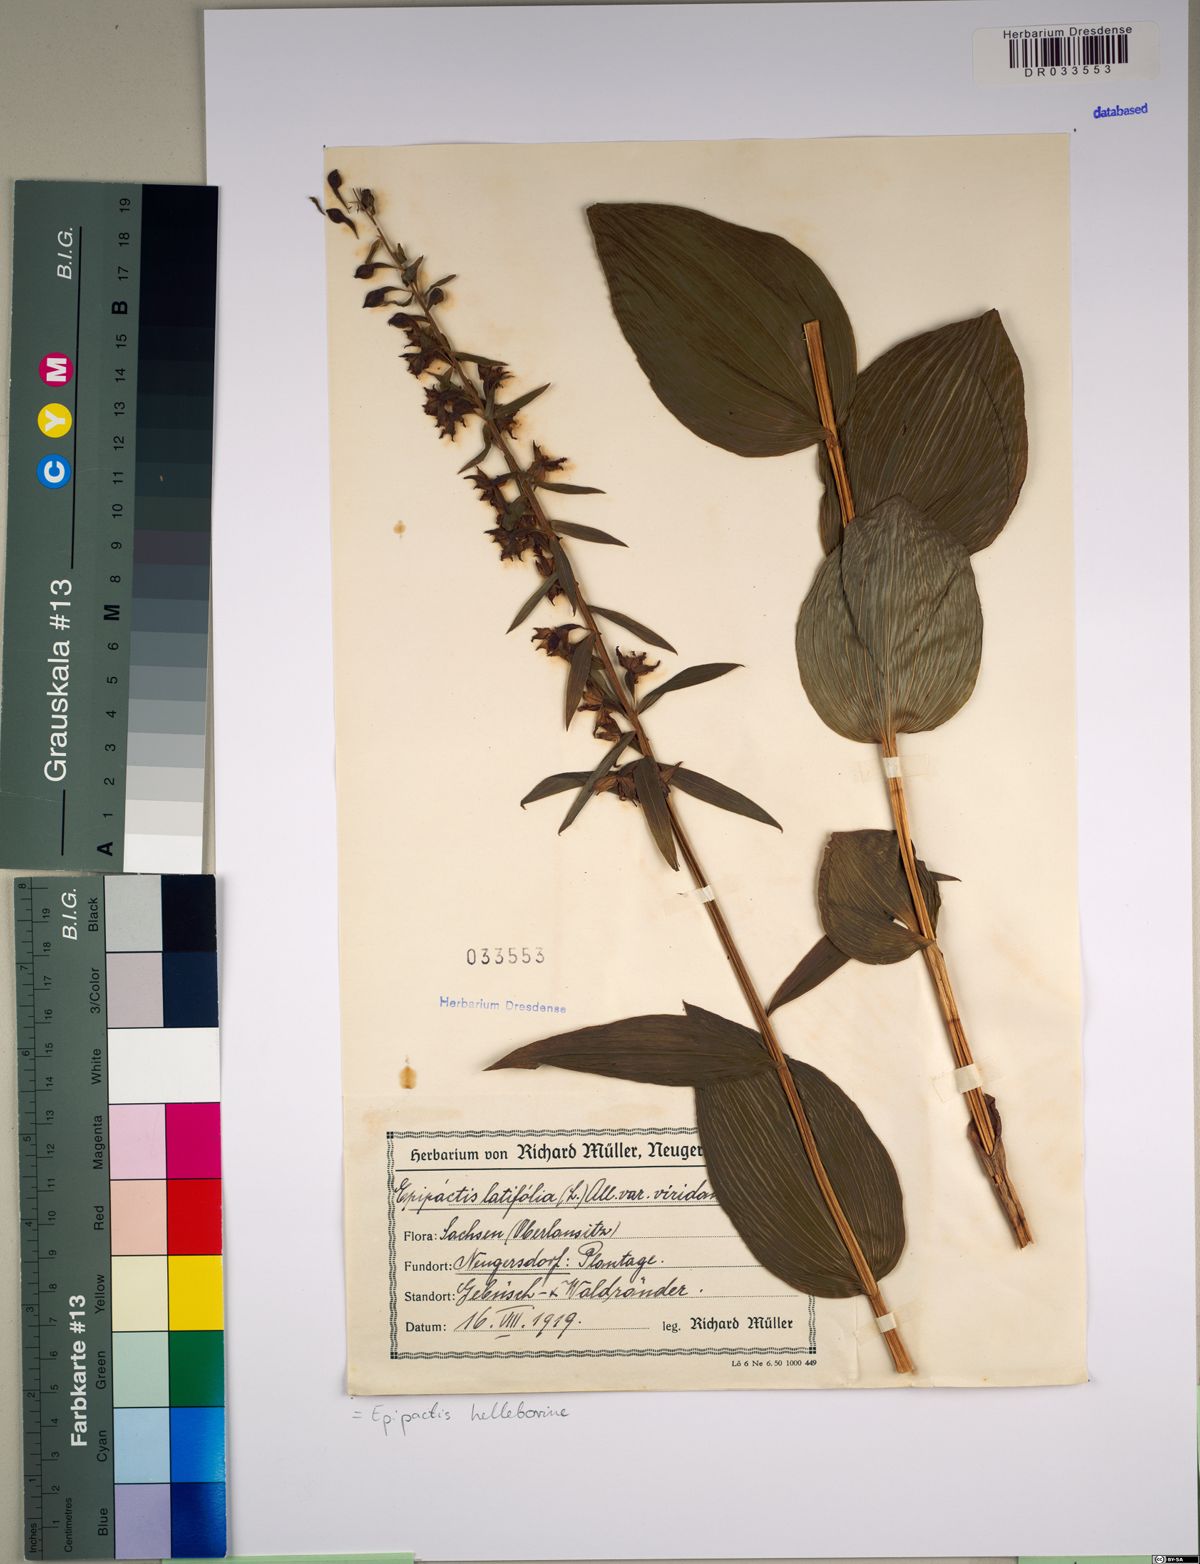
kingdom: Plantae
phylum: Tracheophyta
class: Liliopsida
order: Asparagales
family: Orchidaceae
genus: Epipactis
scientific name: Epipactis helleborine
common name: Broad-leaved helleborine
